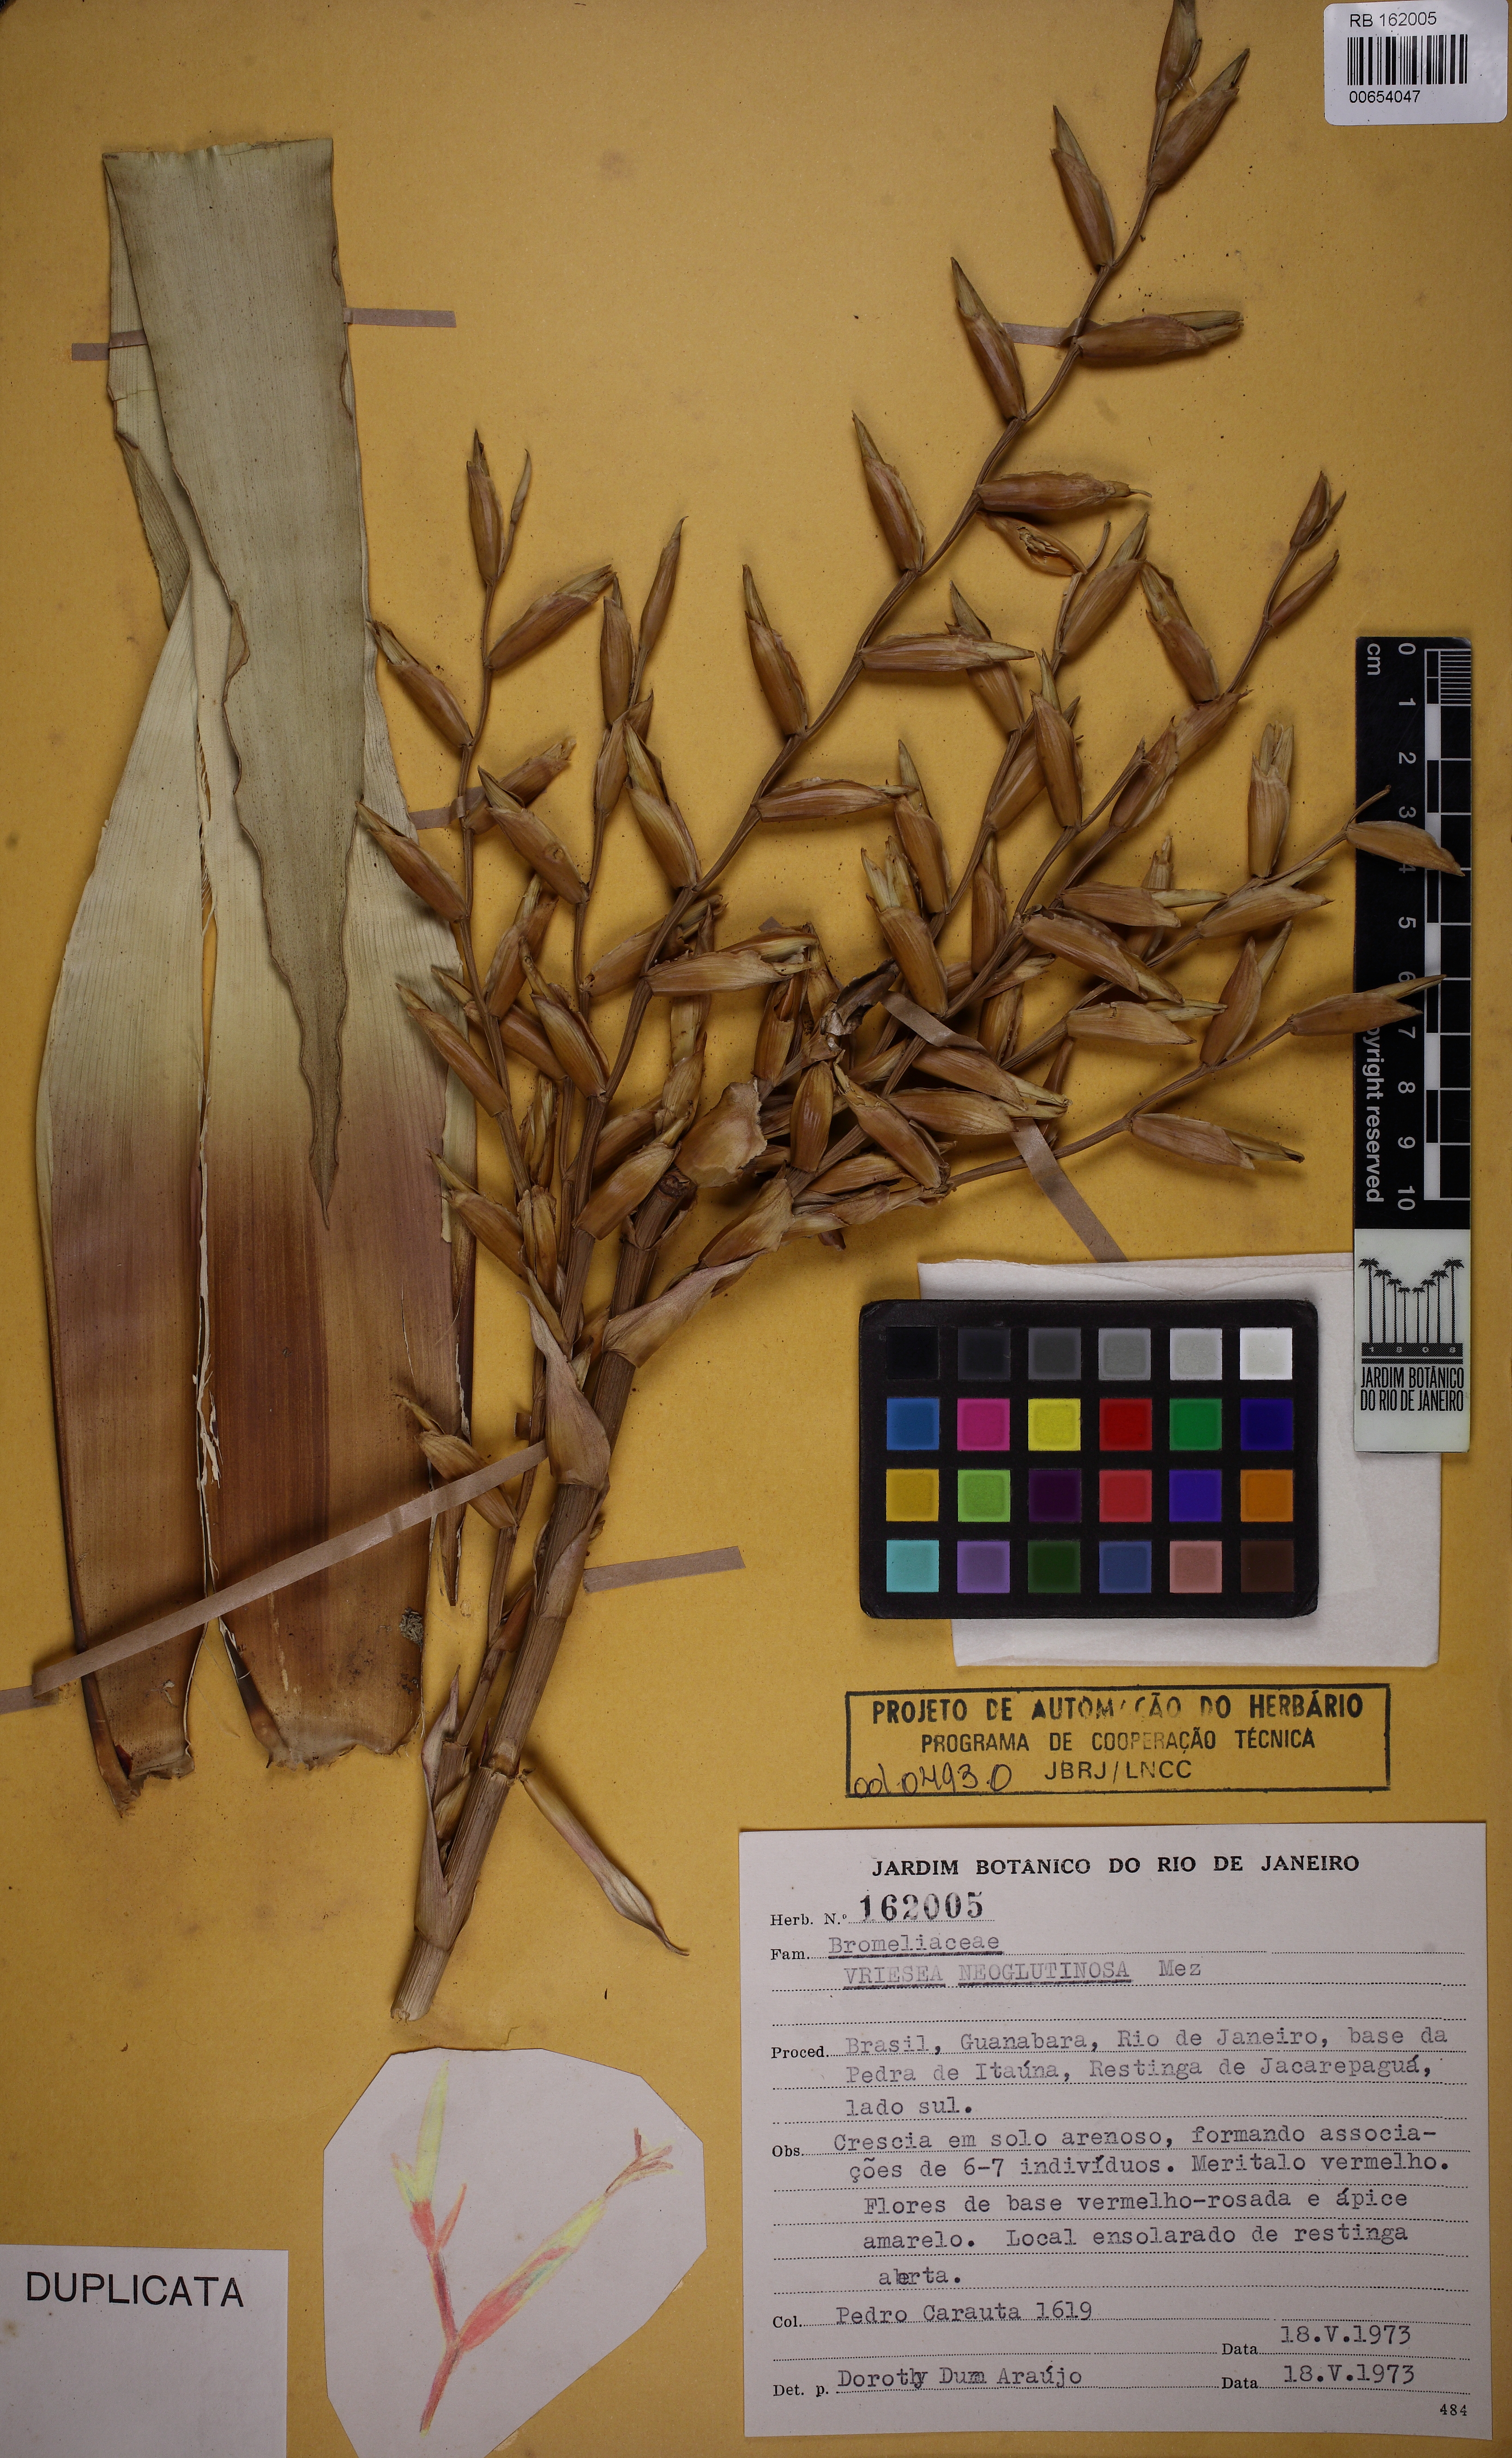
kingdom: Plantae
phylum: Tracheophyta
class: Liliopsida
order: Poales
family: Bromeliaceae
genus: Vriesea
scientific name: Vriesea neoglutinosa
